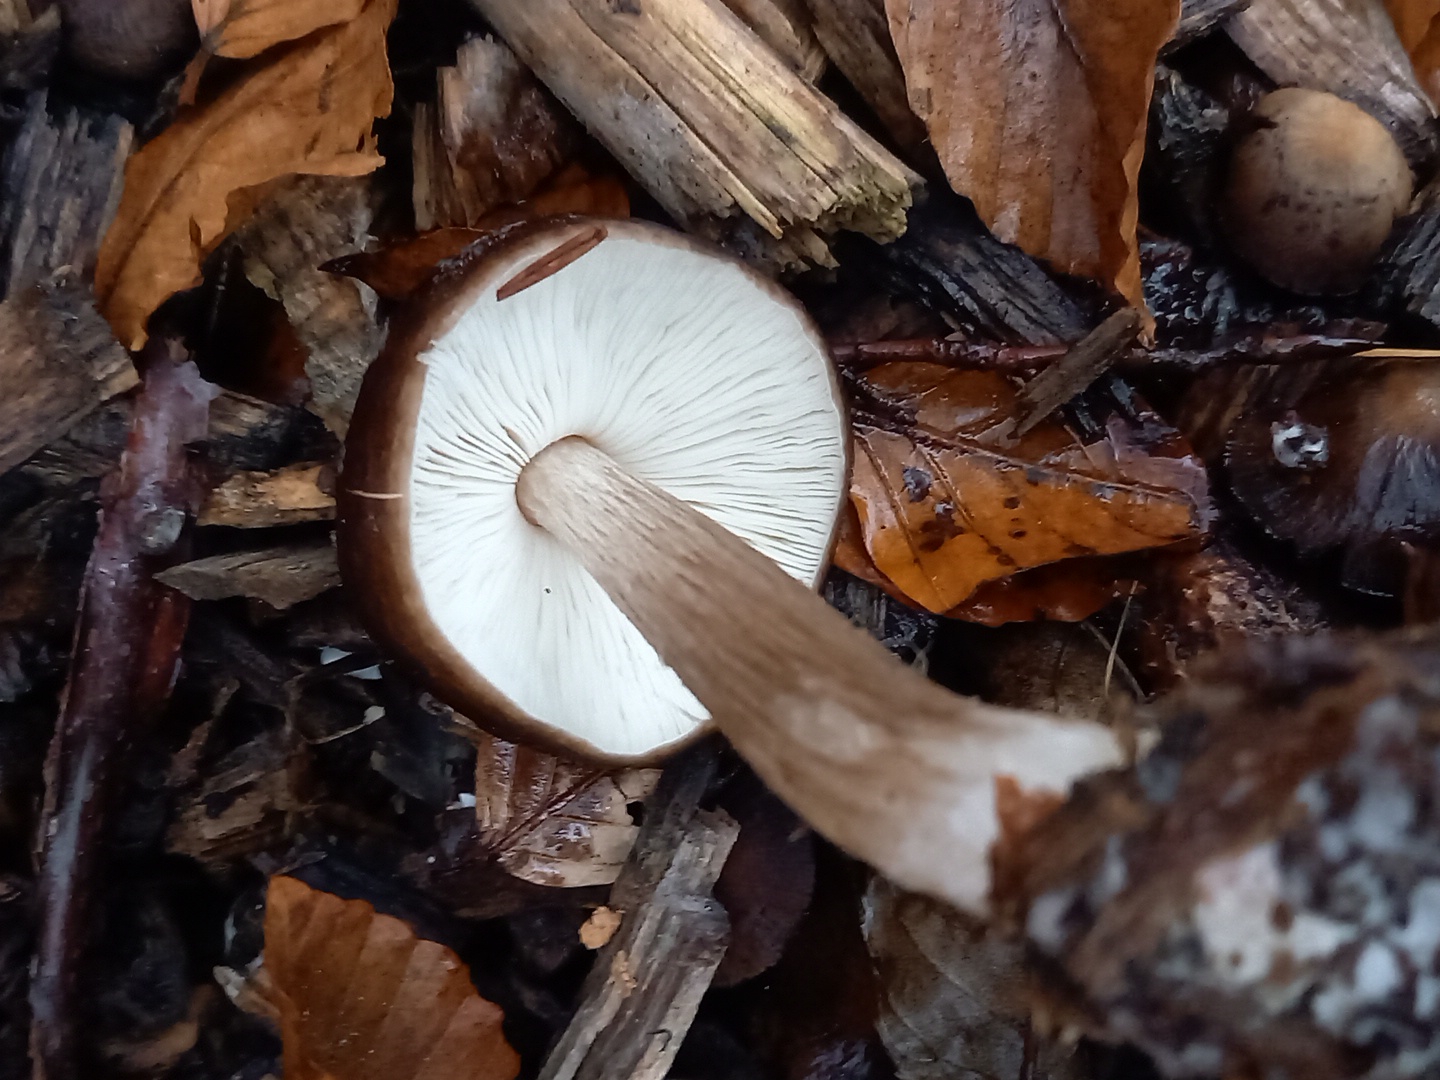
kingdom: Fungi
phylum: Basidiomycota
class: Agaricomycetes
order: Agaricales
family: Pluteaceae
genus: Pluteus
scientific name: Pluteus cervinus
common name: sodfarvet skærmhat
